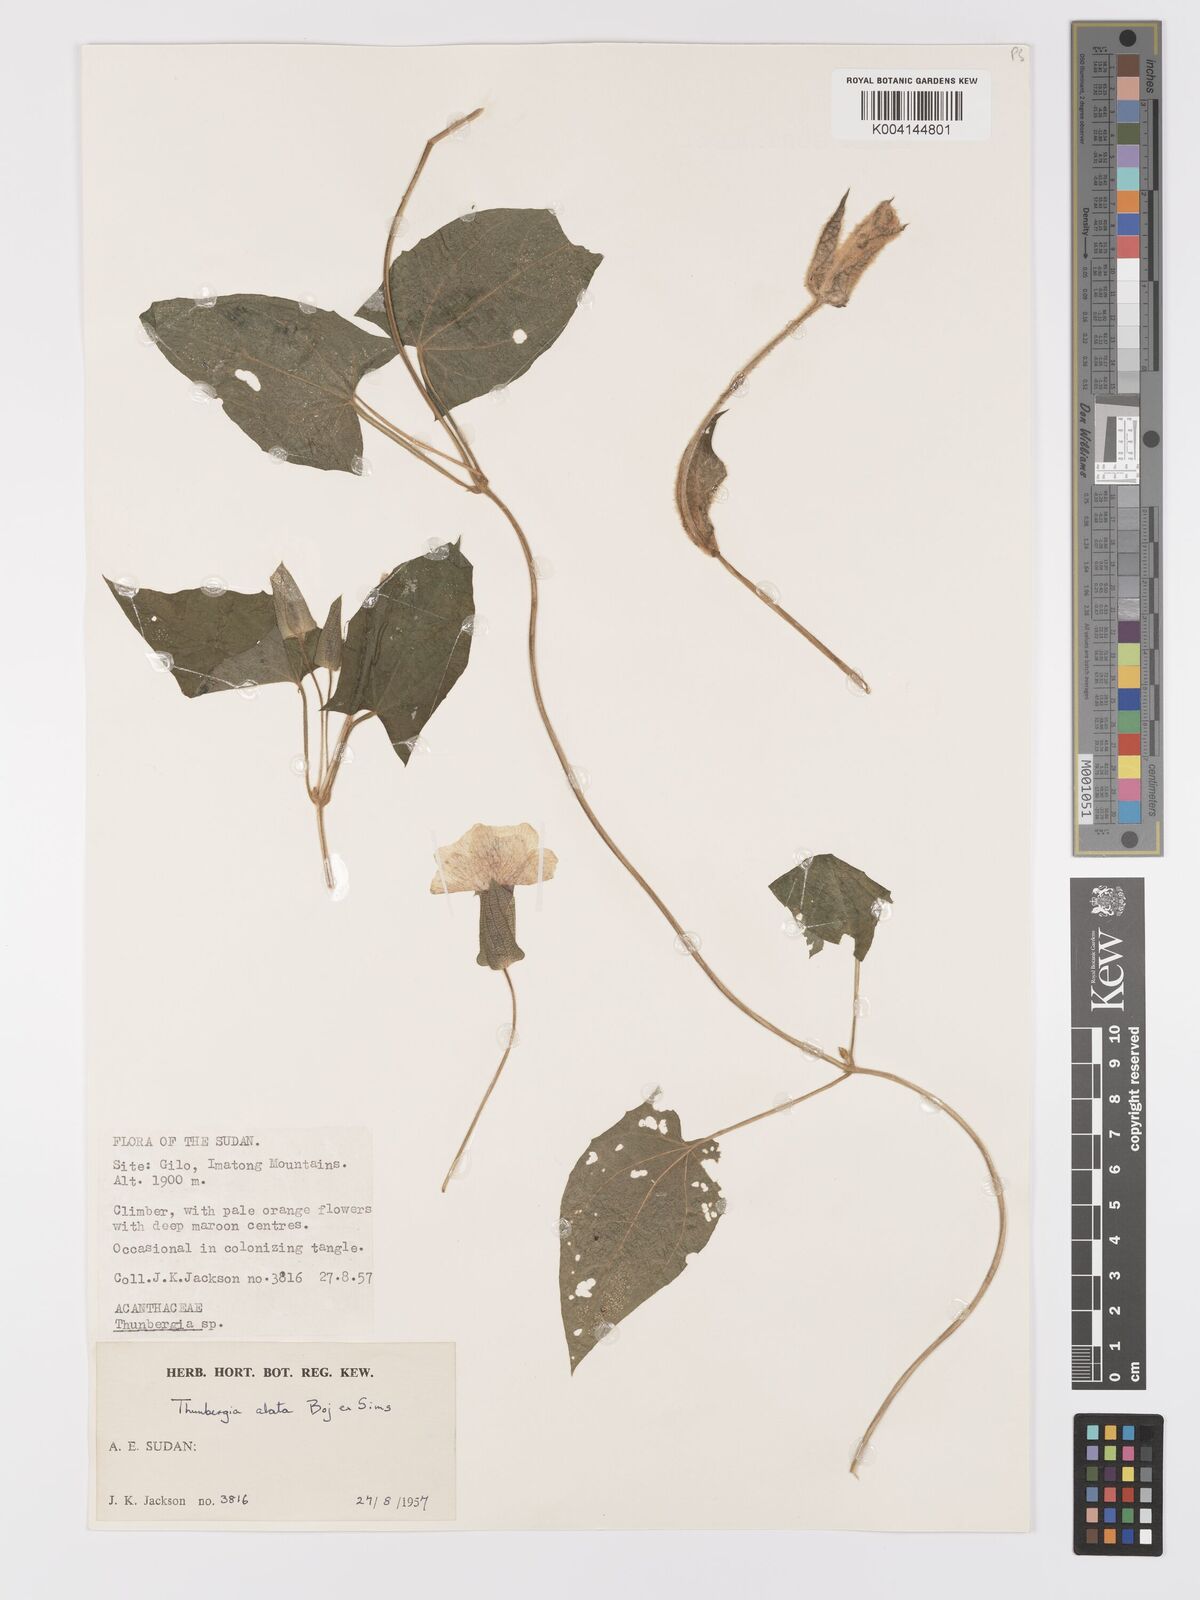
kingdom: Plantae
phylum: Tracheophyta
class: Magnoliopsida
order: Lamiales
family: Acanthaceae
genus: Thunbergia
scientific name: Thunbergia alata
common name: Blackeyed susan vine
